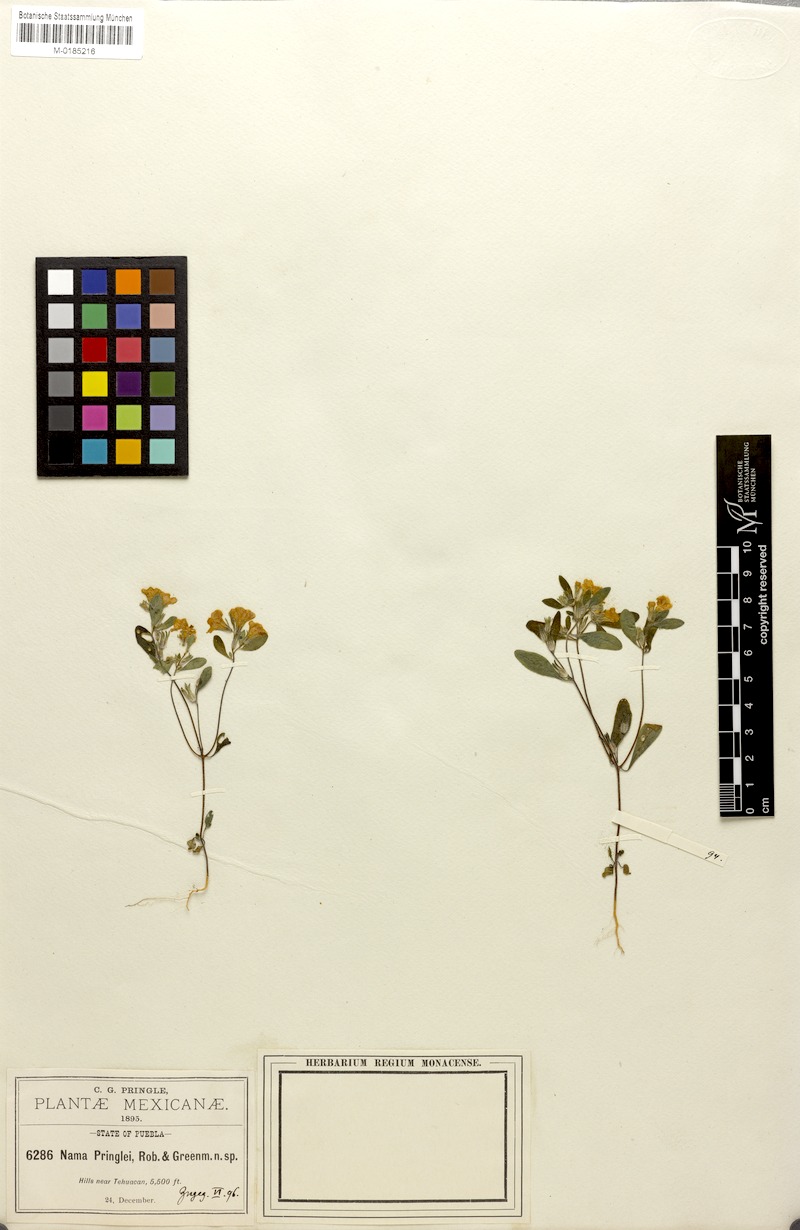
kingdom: Plantae
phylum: Tracheophyta
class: Magnoliopsida
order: Boraginales
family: Namaceae
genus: Nama
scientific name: Nama coulteri
